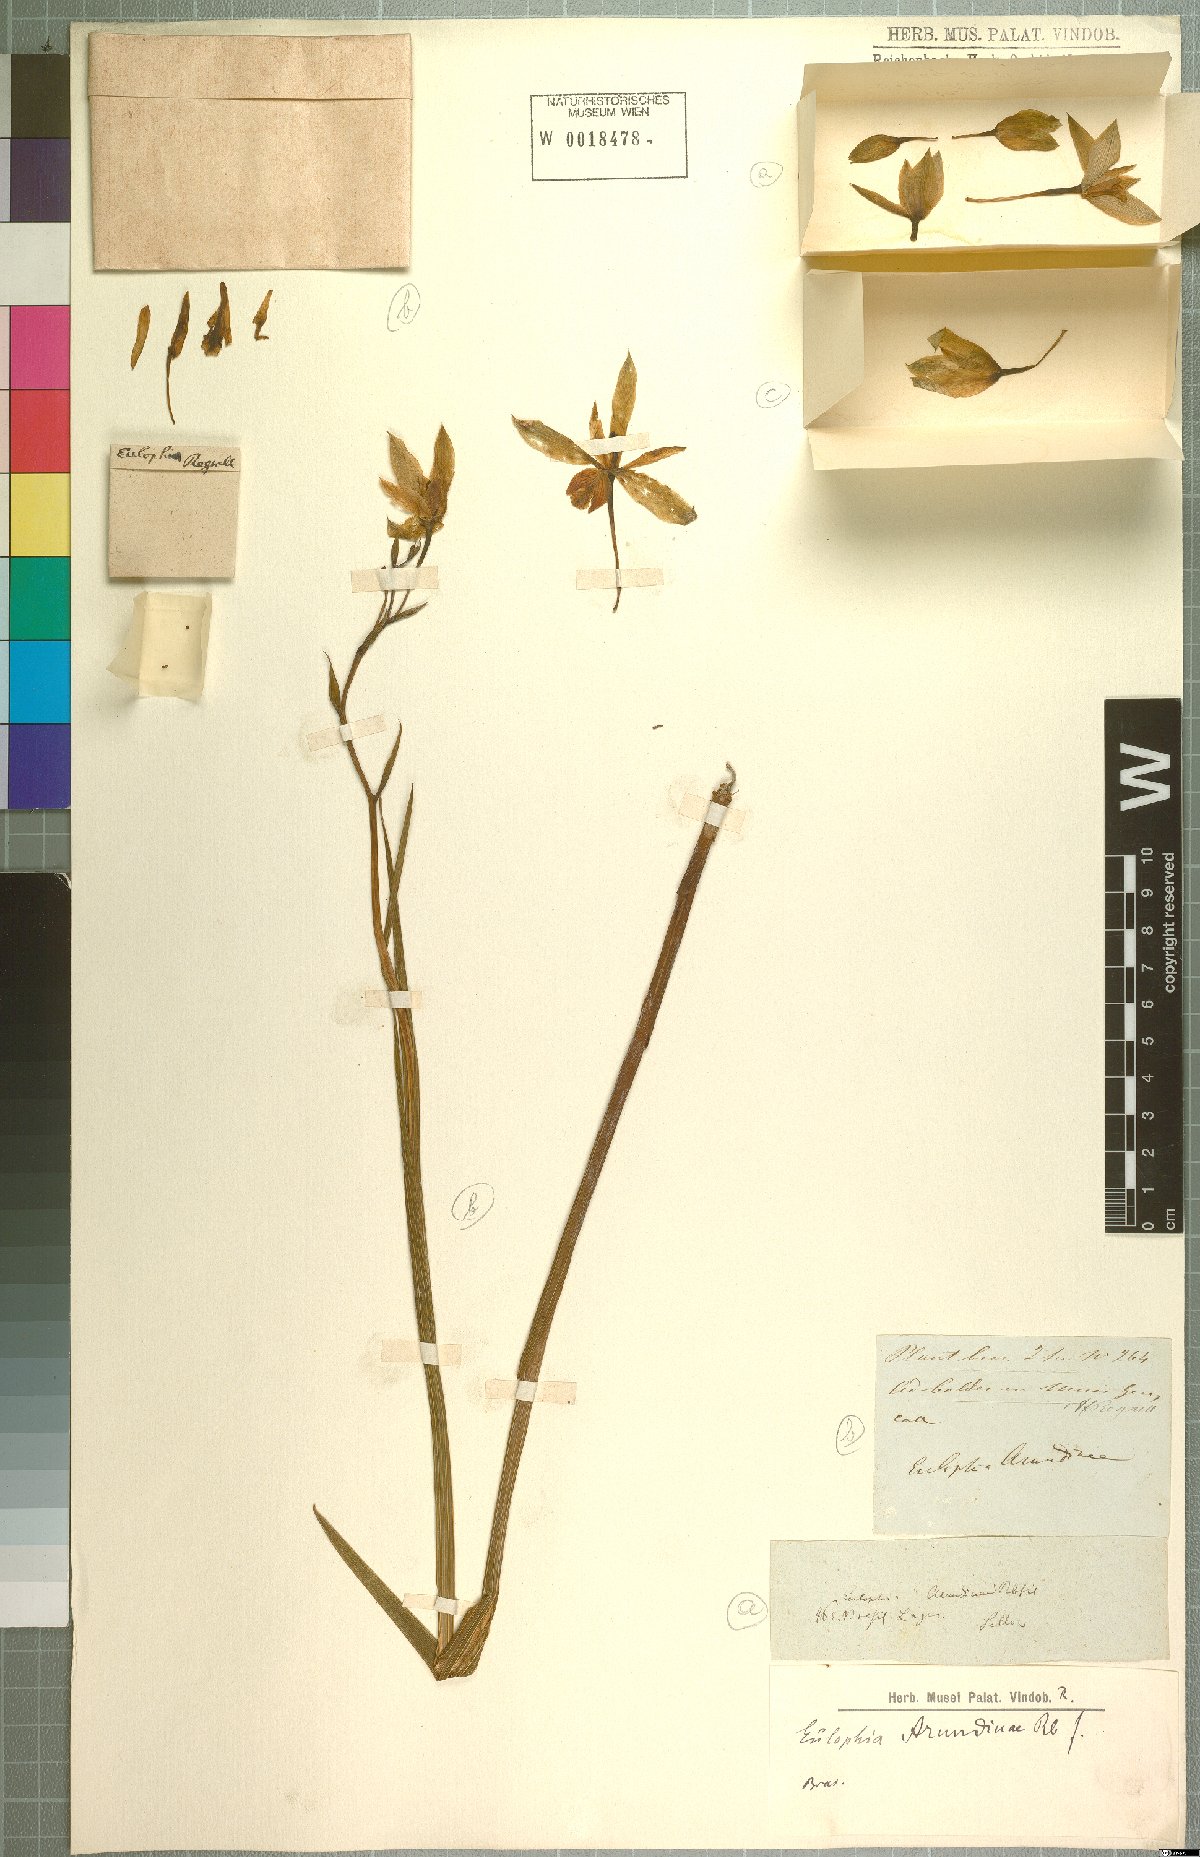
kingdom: Plantae
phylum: Tracheophyta
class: Liliopsida
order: Asparagales
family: Orchidaceae
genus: Cyanaeorchis
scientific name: Cyanaeorchis arundinae
